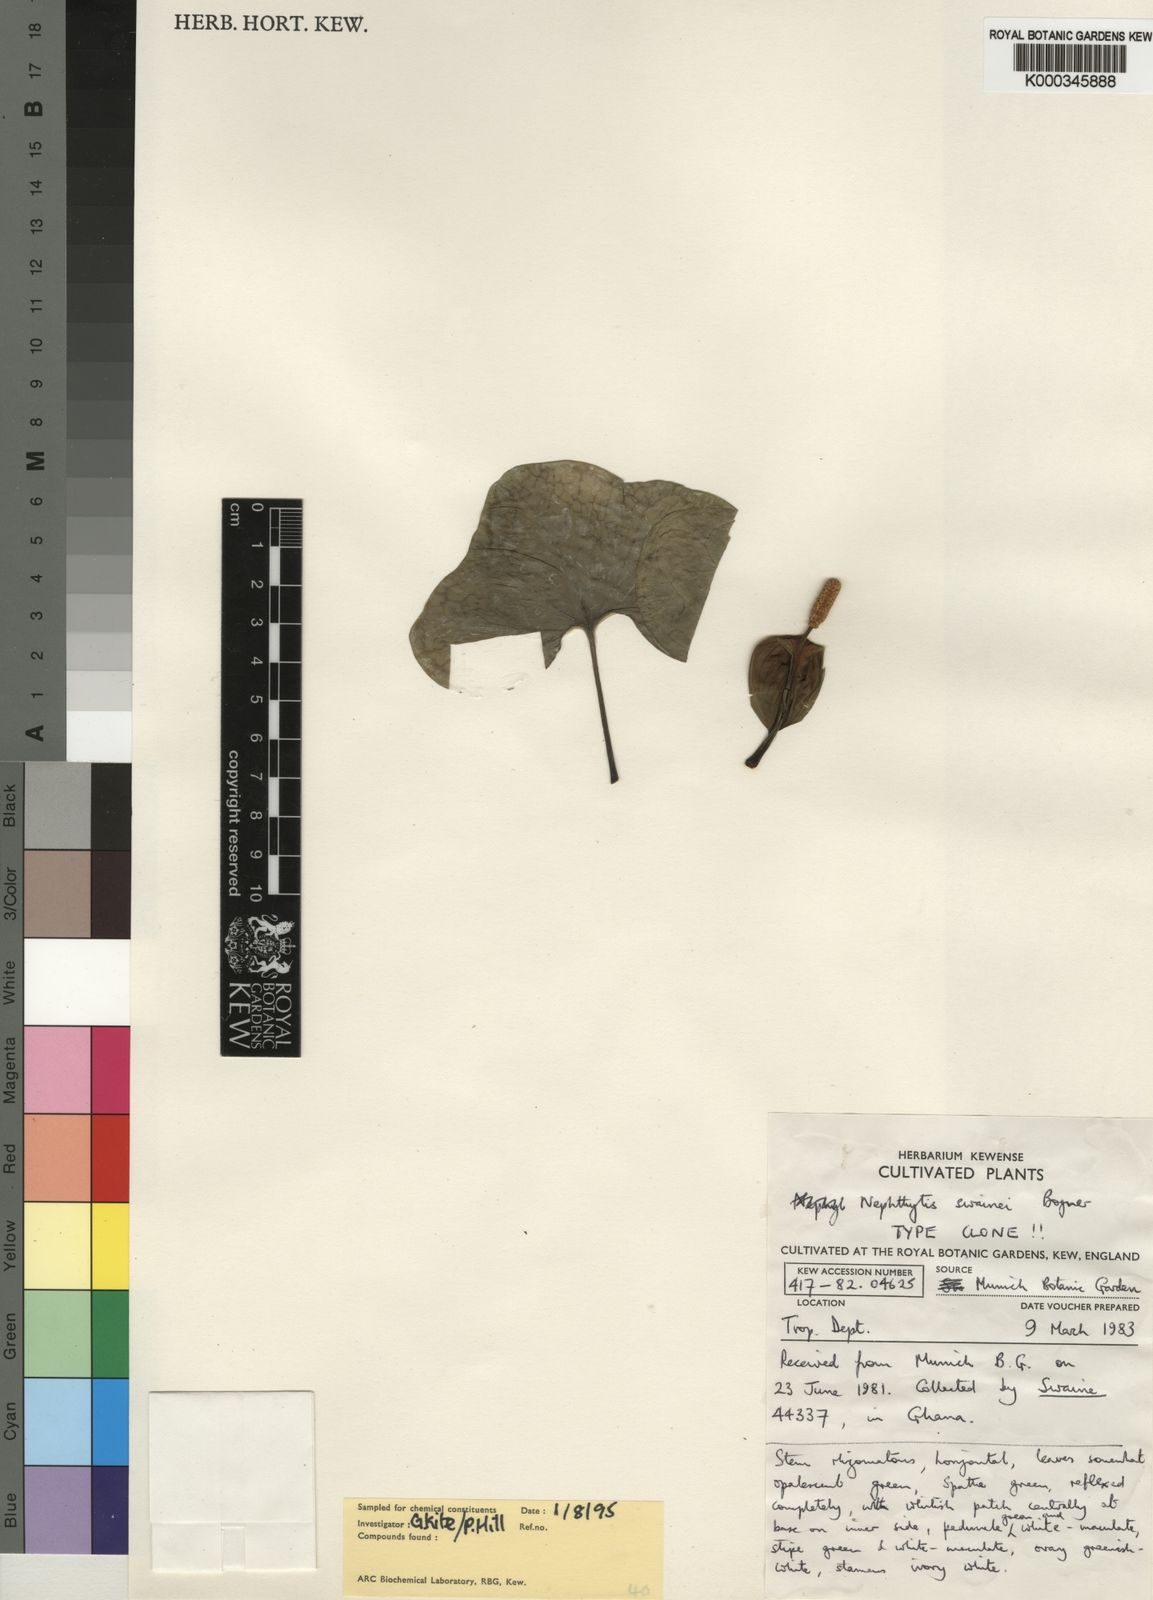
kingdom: Plantae
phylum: Tracheophyta
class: Liliopsida
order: Alismatales
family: Araceae
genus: Nephthytis
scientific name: Nephthytis swainei
